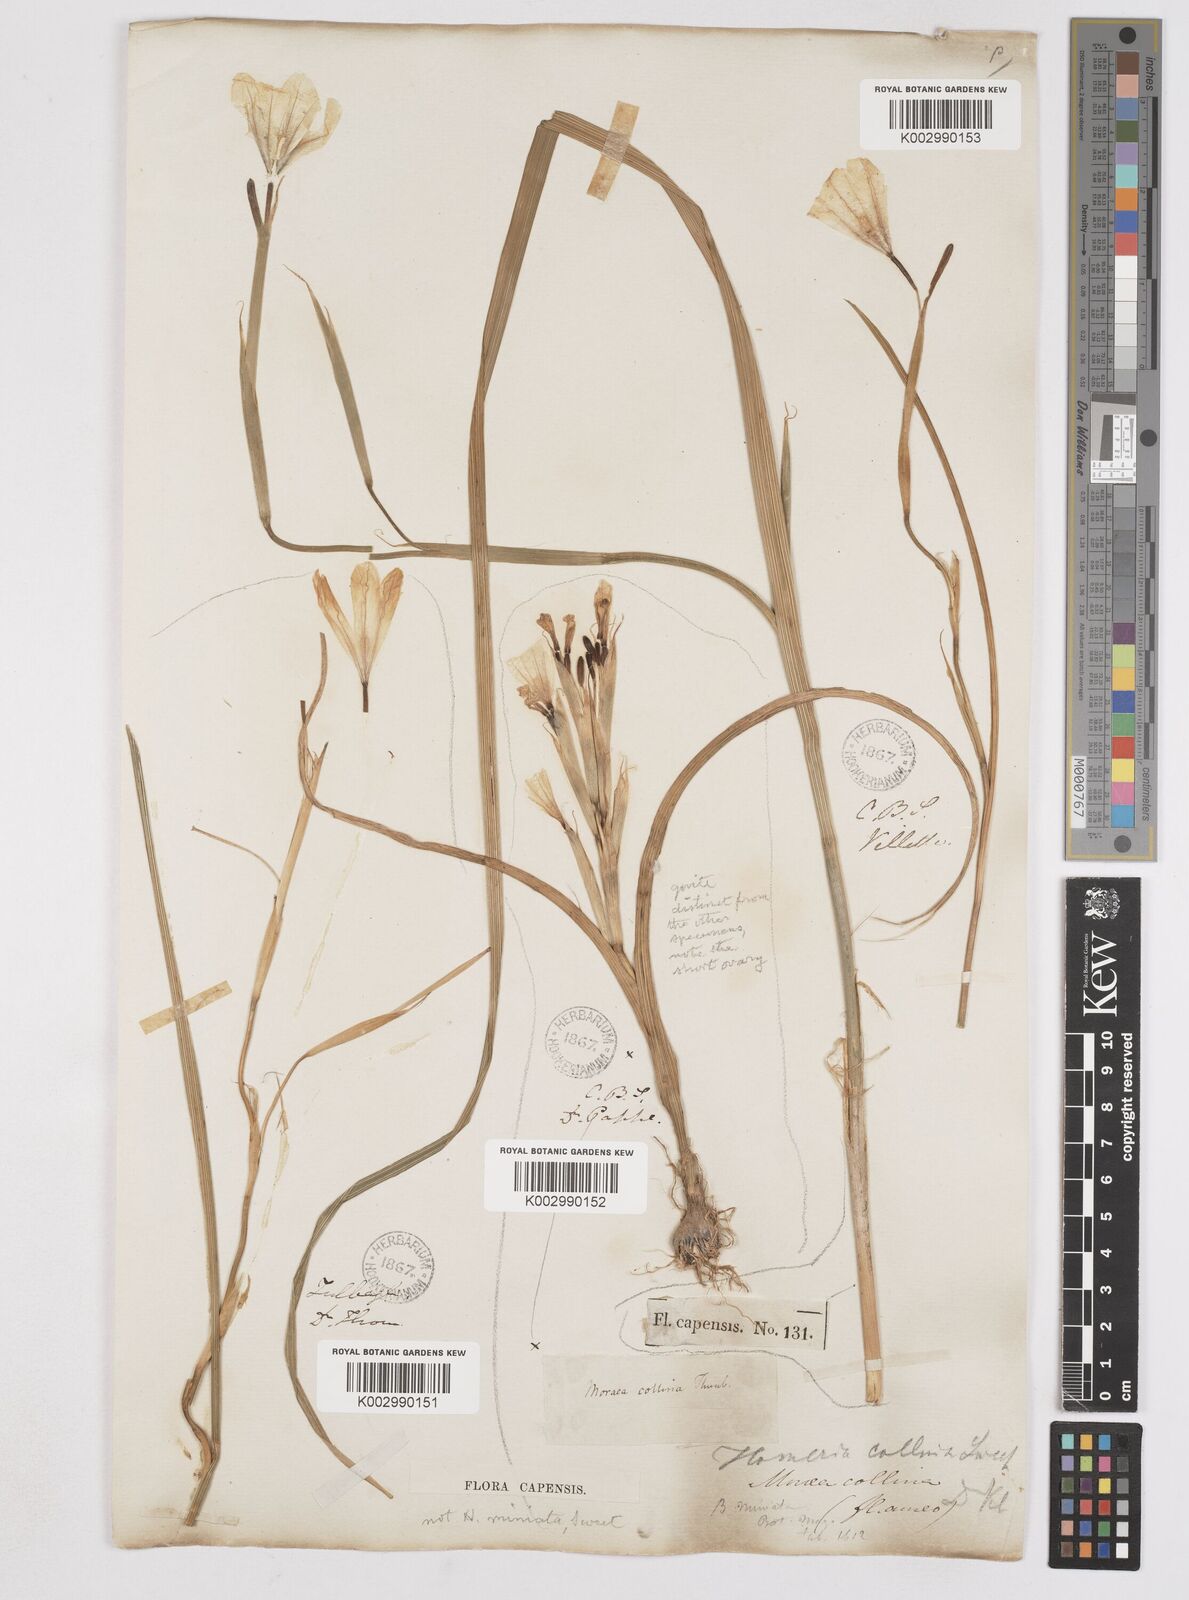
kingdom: Plantae
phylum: Tracheophyta
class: Liliopsida
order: Asparagales
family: Iridaceae
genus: Moraea
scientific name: Moraea collina
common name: Cape-tulip
